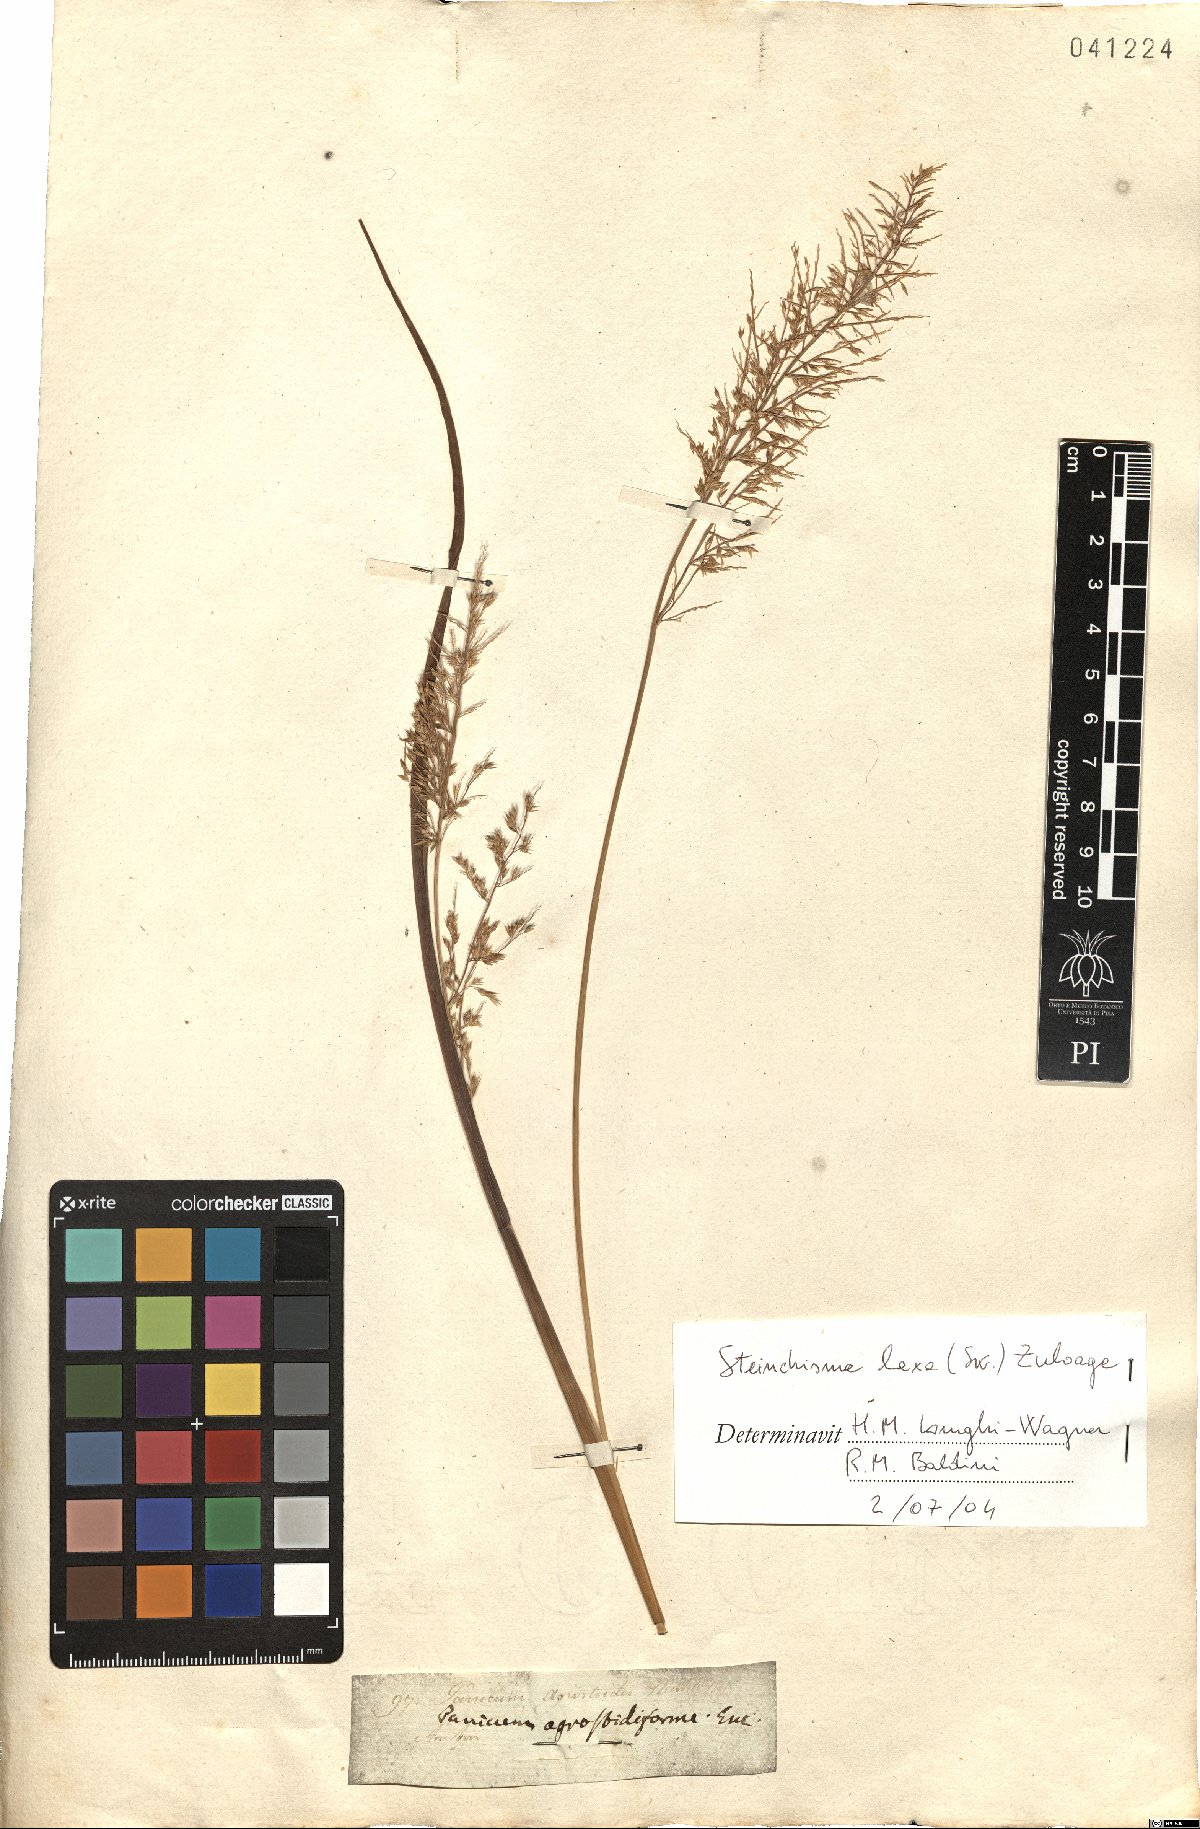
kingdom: Plantae
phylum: Tracheophyta
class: Liliopsida
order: Poales
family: Poaceae
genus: Steinchisma
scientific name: Steinchisma laxum
